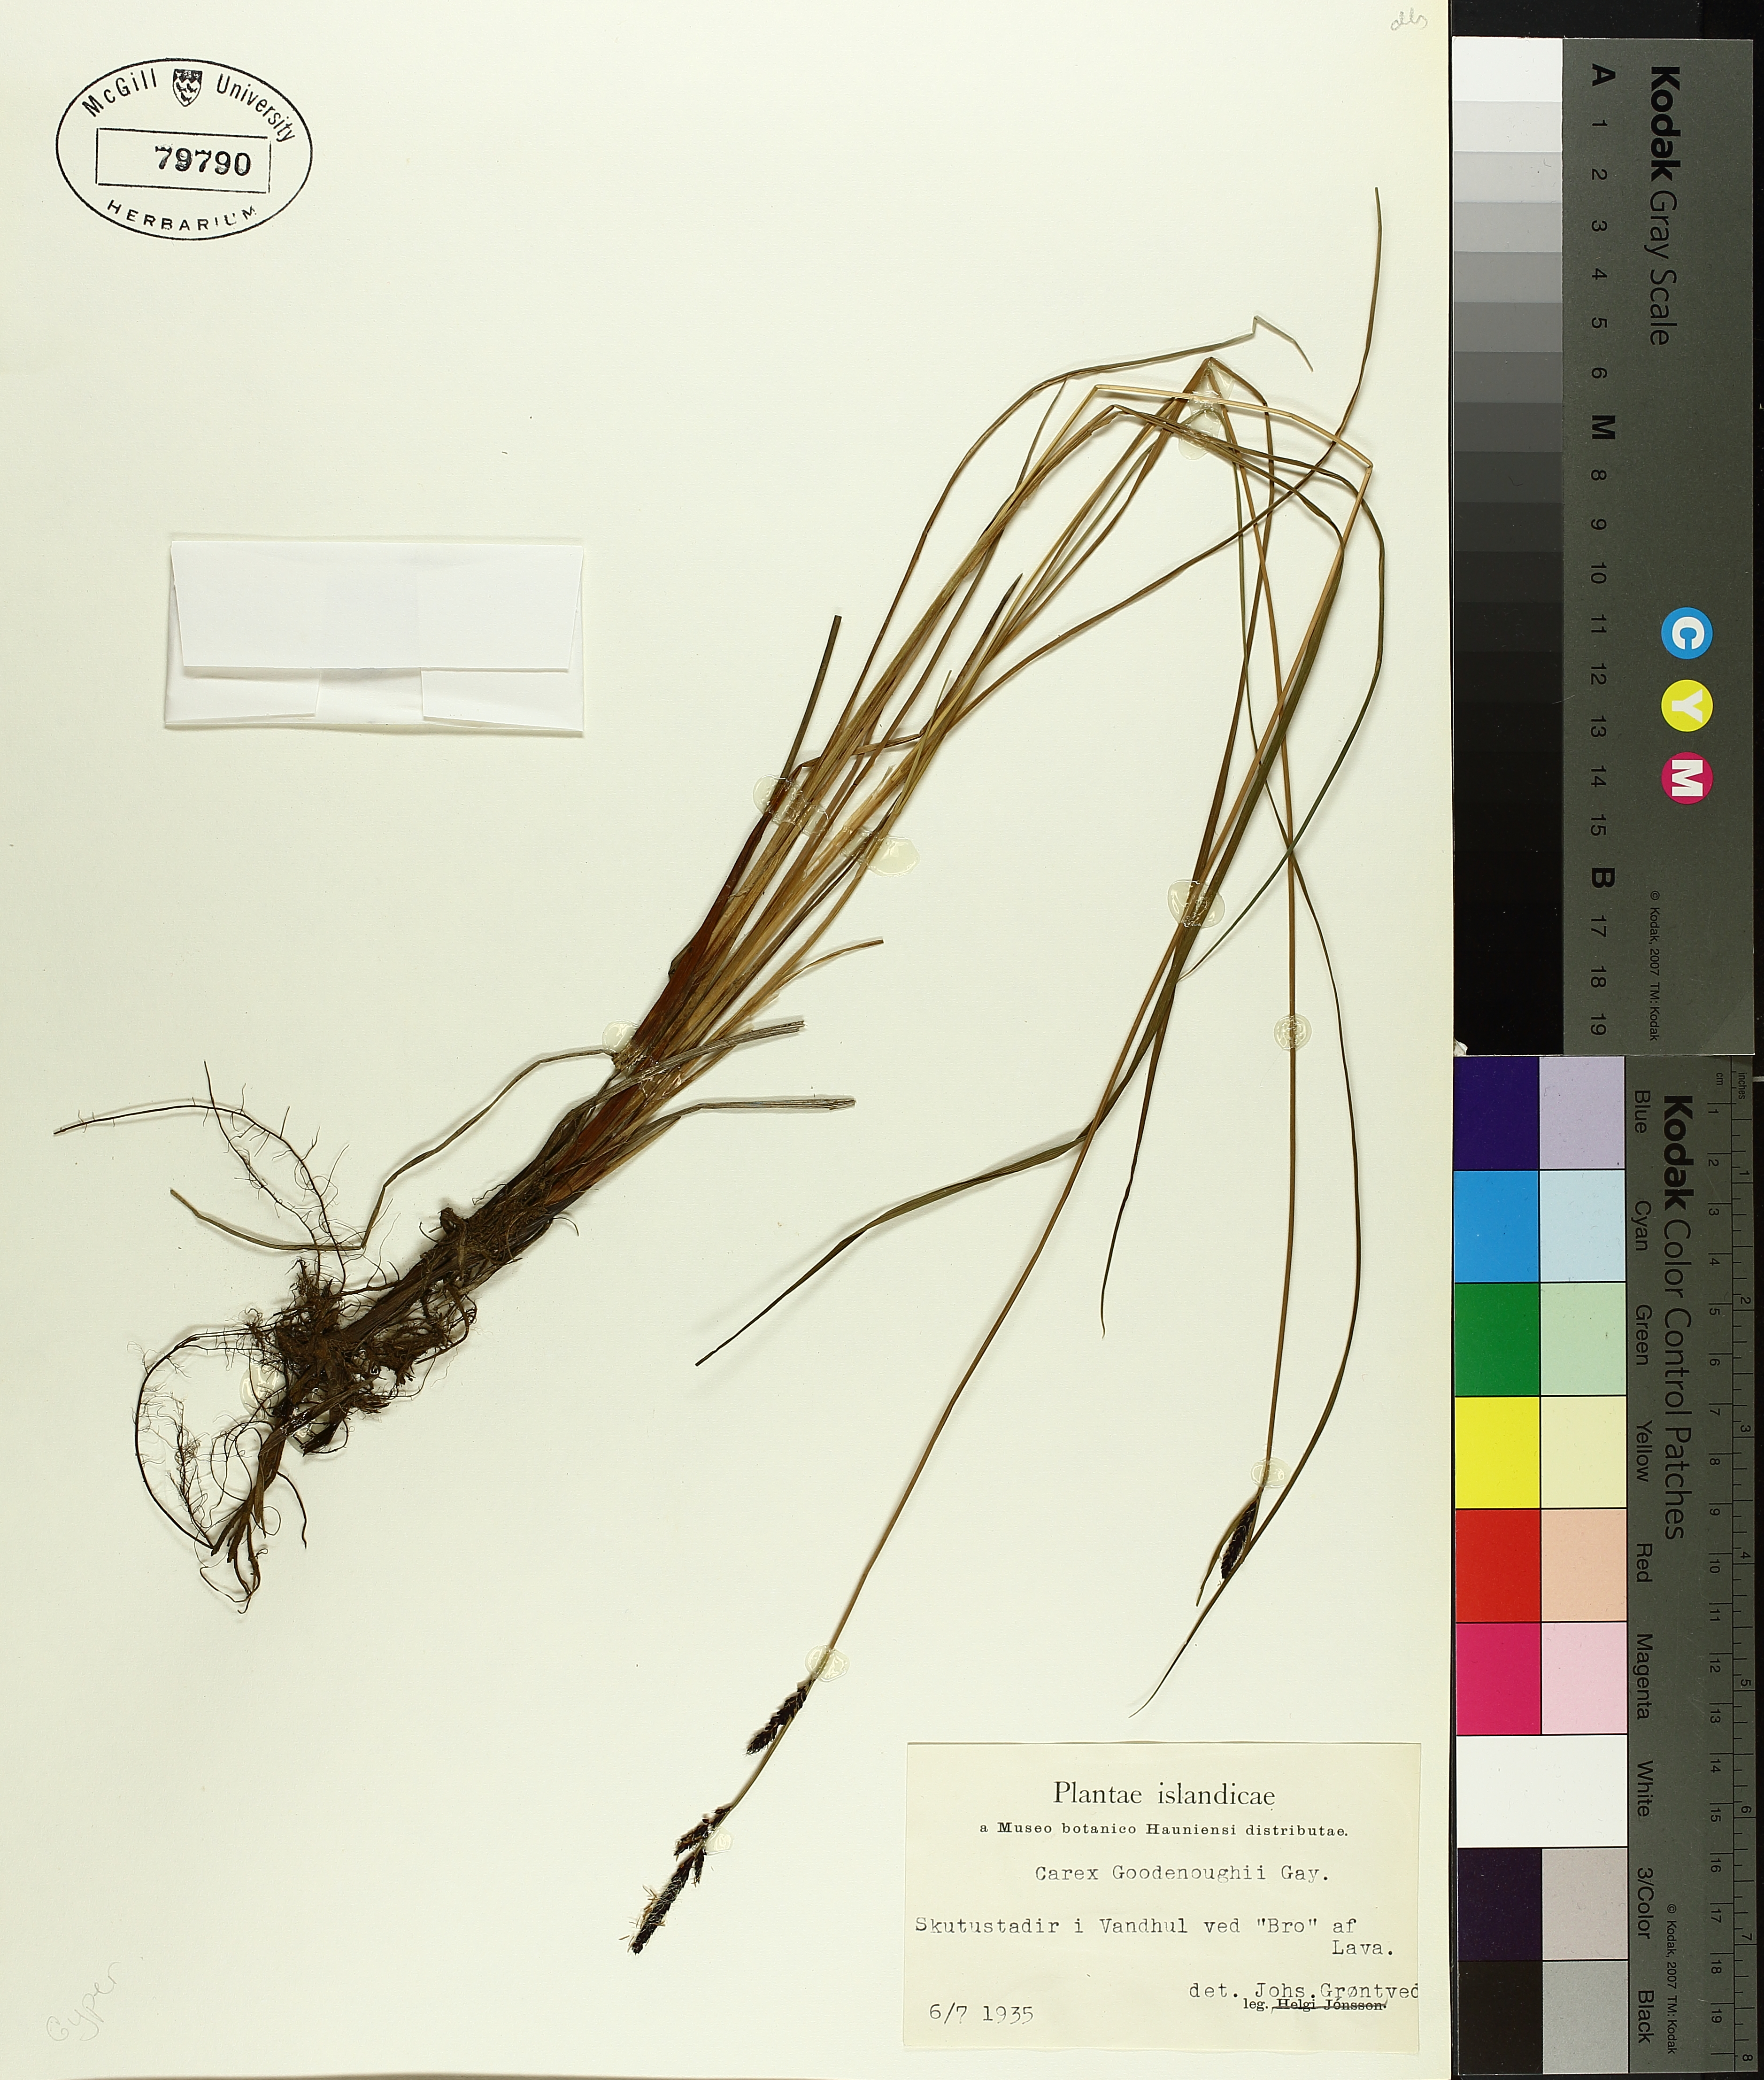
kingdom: Plantae
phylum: Tracheophyta
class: Liliopsida
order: Poales
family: Cyperaceae
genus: Carex
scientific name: Carex nigra
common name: Common sedge
